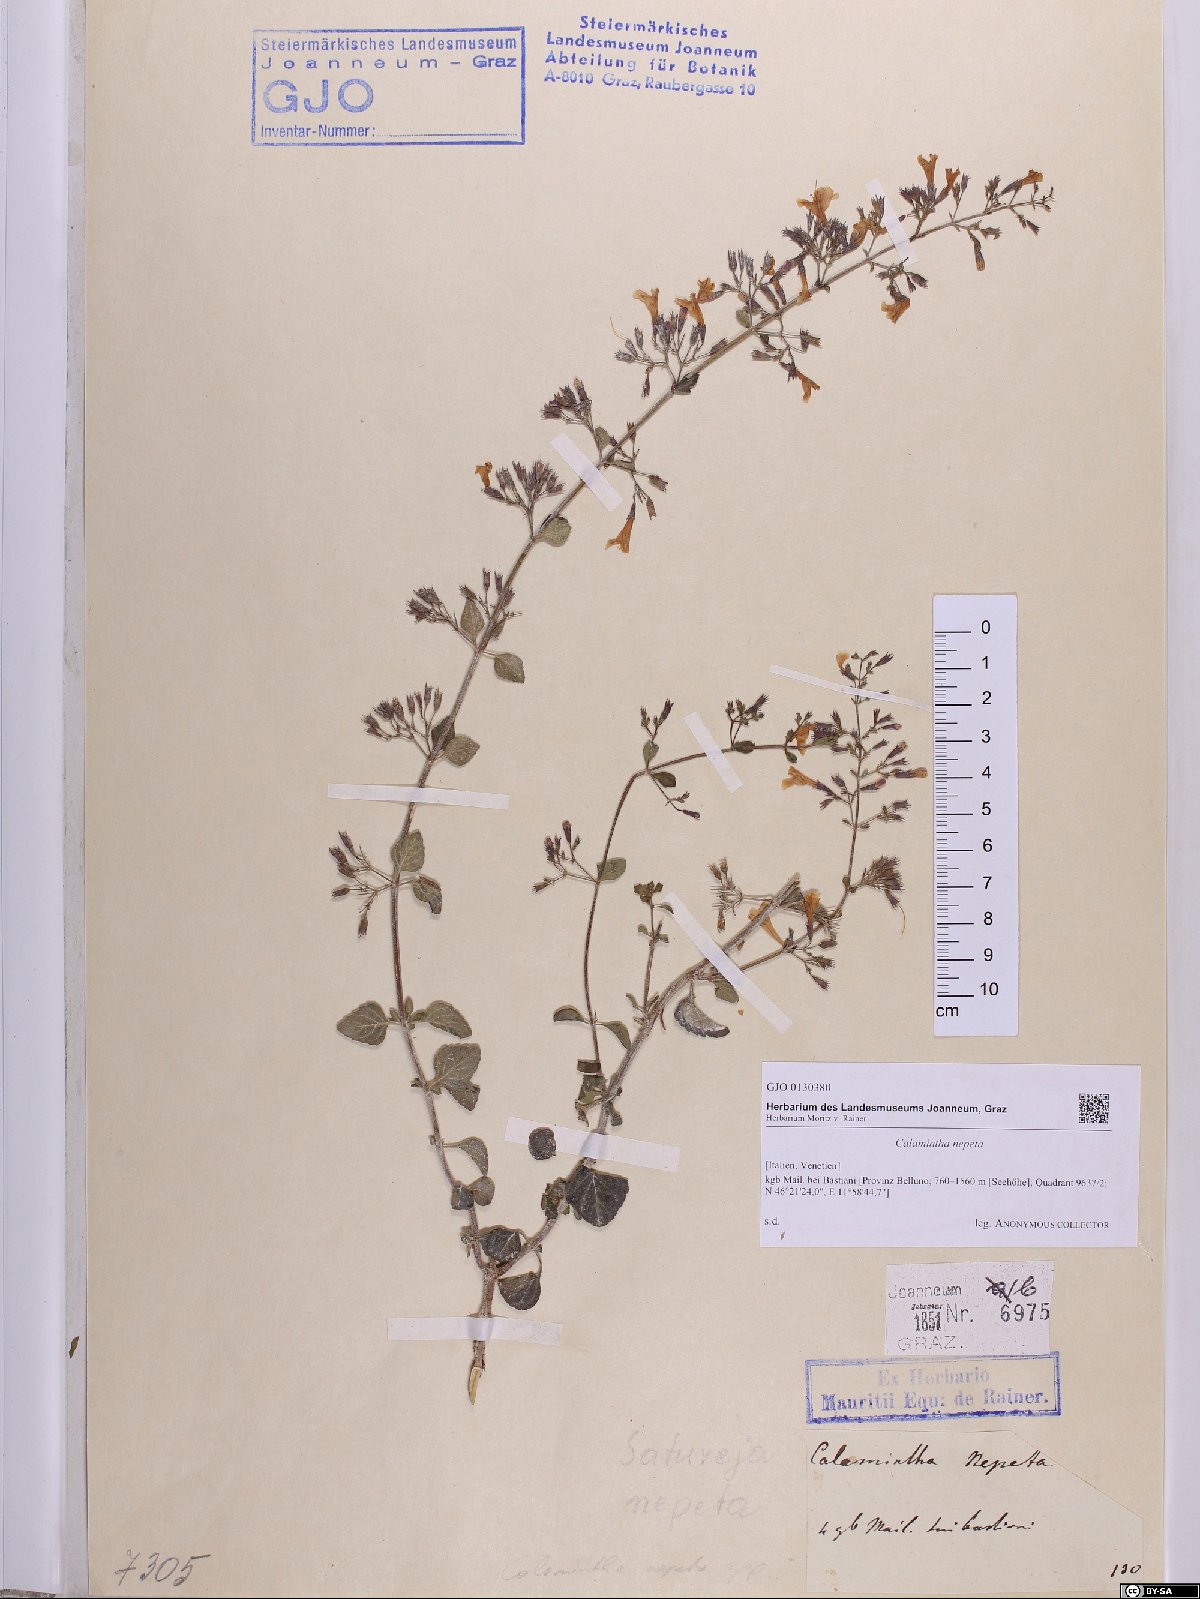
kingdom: Plantae
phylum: Tracheophyta
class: Magnoliopsida
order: Lamiales
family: Lamiaceae
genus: Clinopodium
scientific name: Clinopodium nepeta
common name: Lesser calamint
